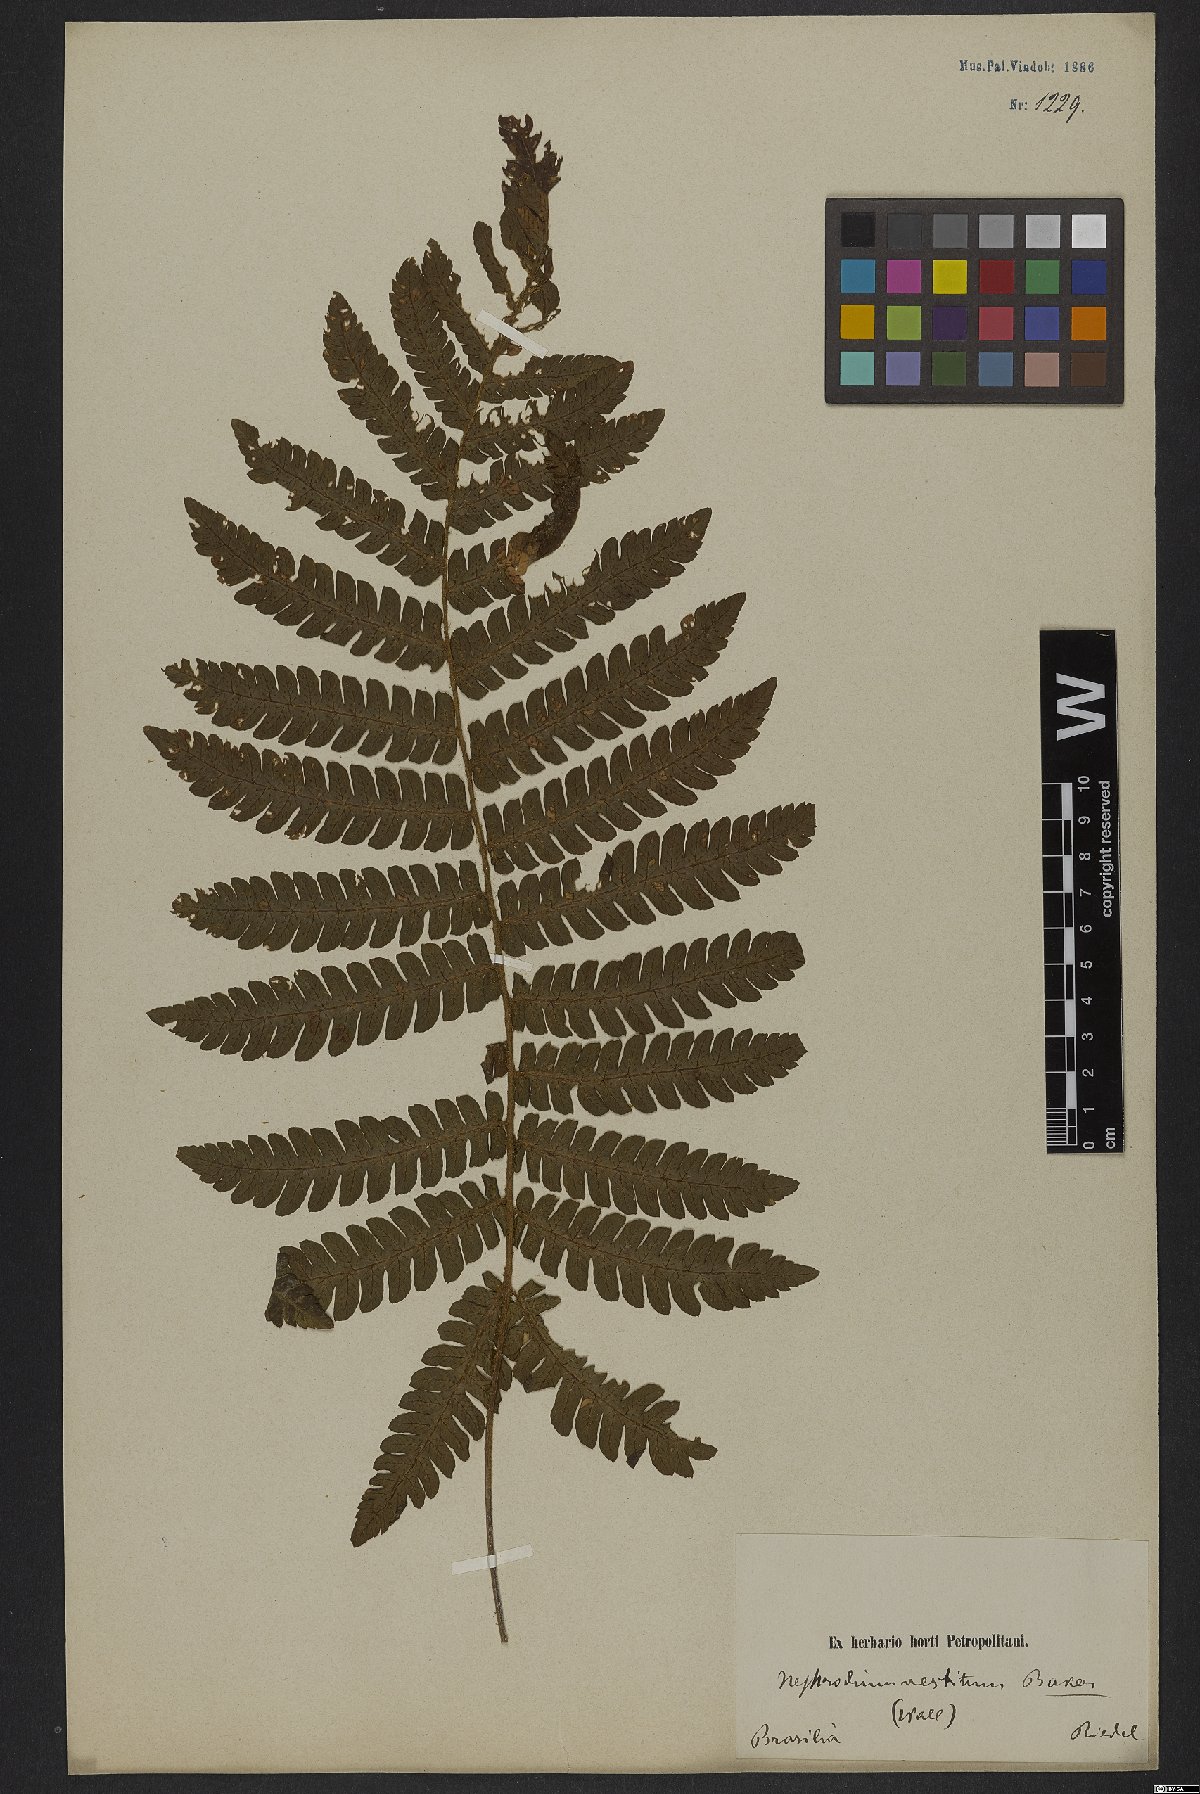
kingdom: Plantae
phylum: Tracheophyta
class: Polypodiopsida
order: Polypodiales
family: Dryopteridaceae
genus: Ctenitis
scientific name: Ctenitis deflexa
